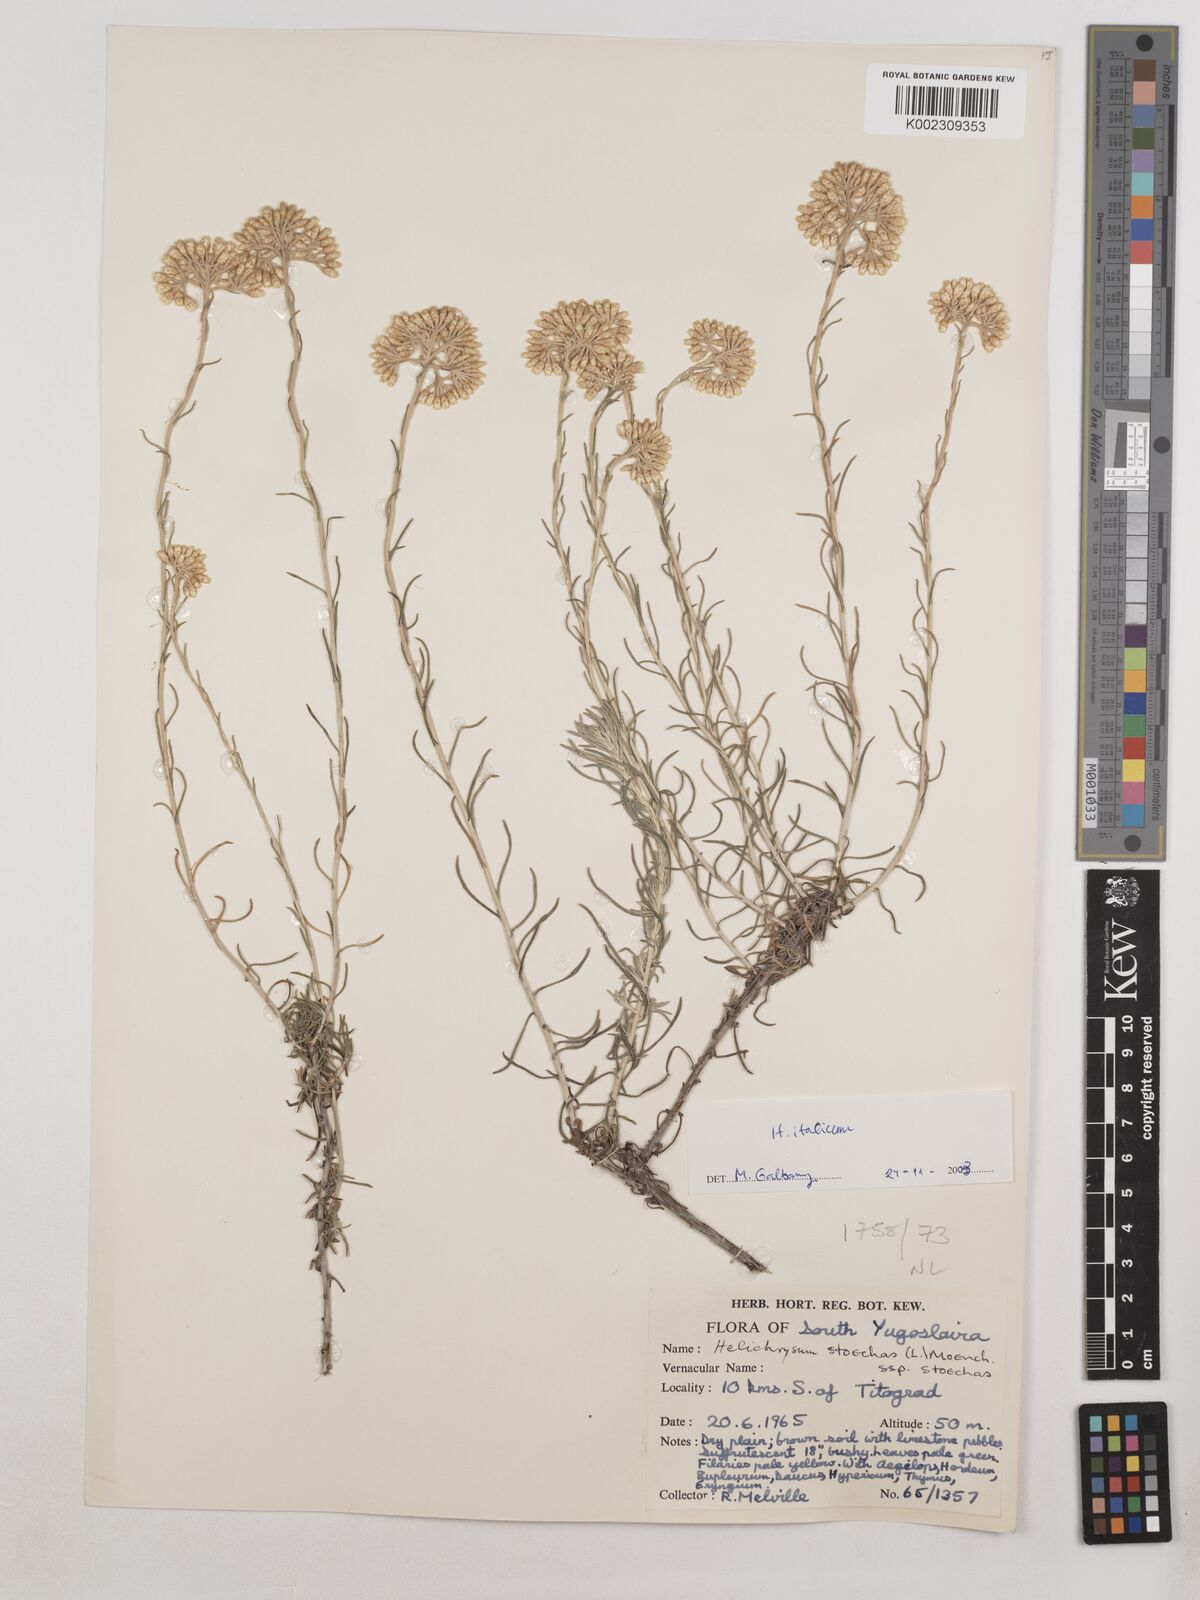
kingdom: Plantae
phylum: Tracheophyta
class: Magnoliopsida
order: Asterales
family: Asteraceae
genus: Helichrysum
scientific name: Helichrysum stoechas
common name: Goldilocks
